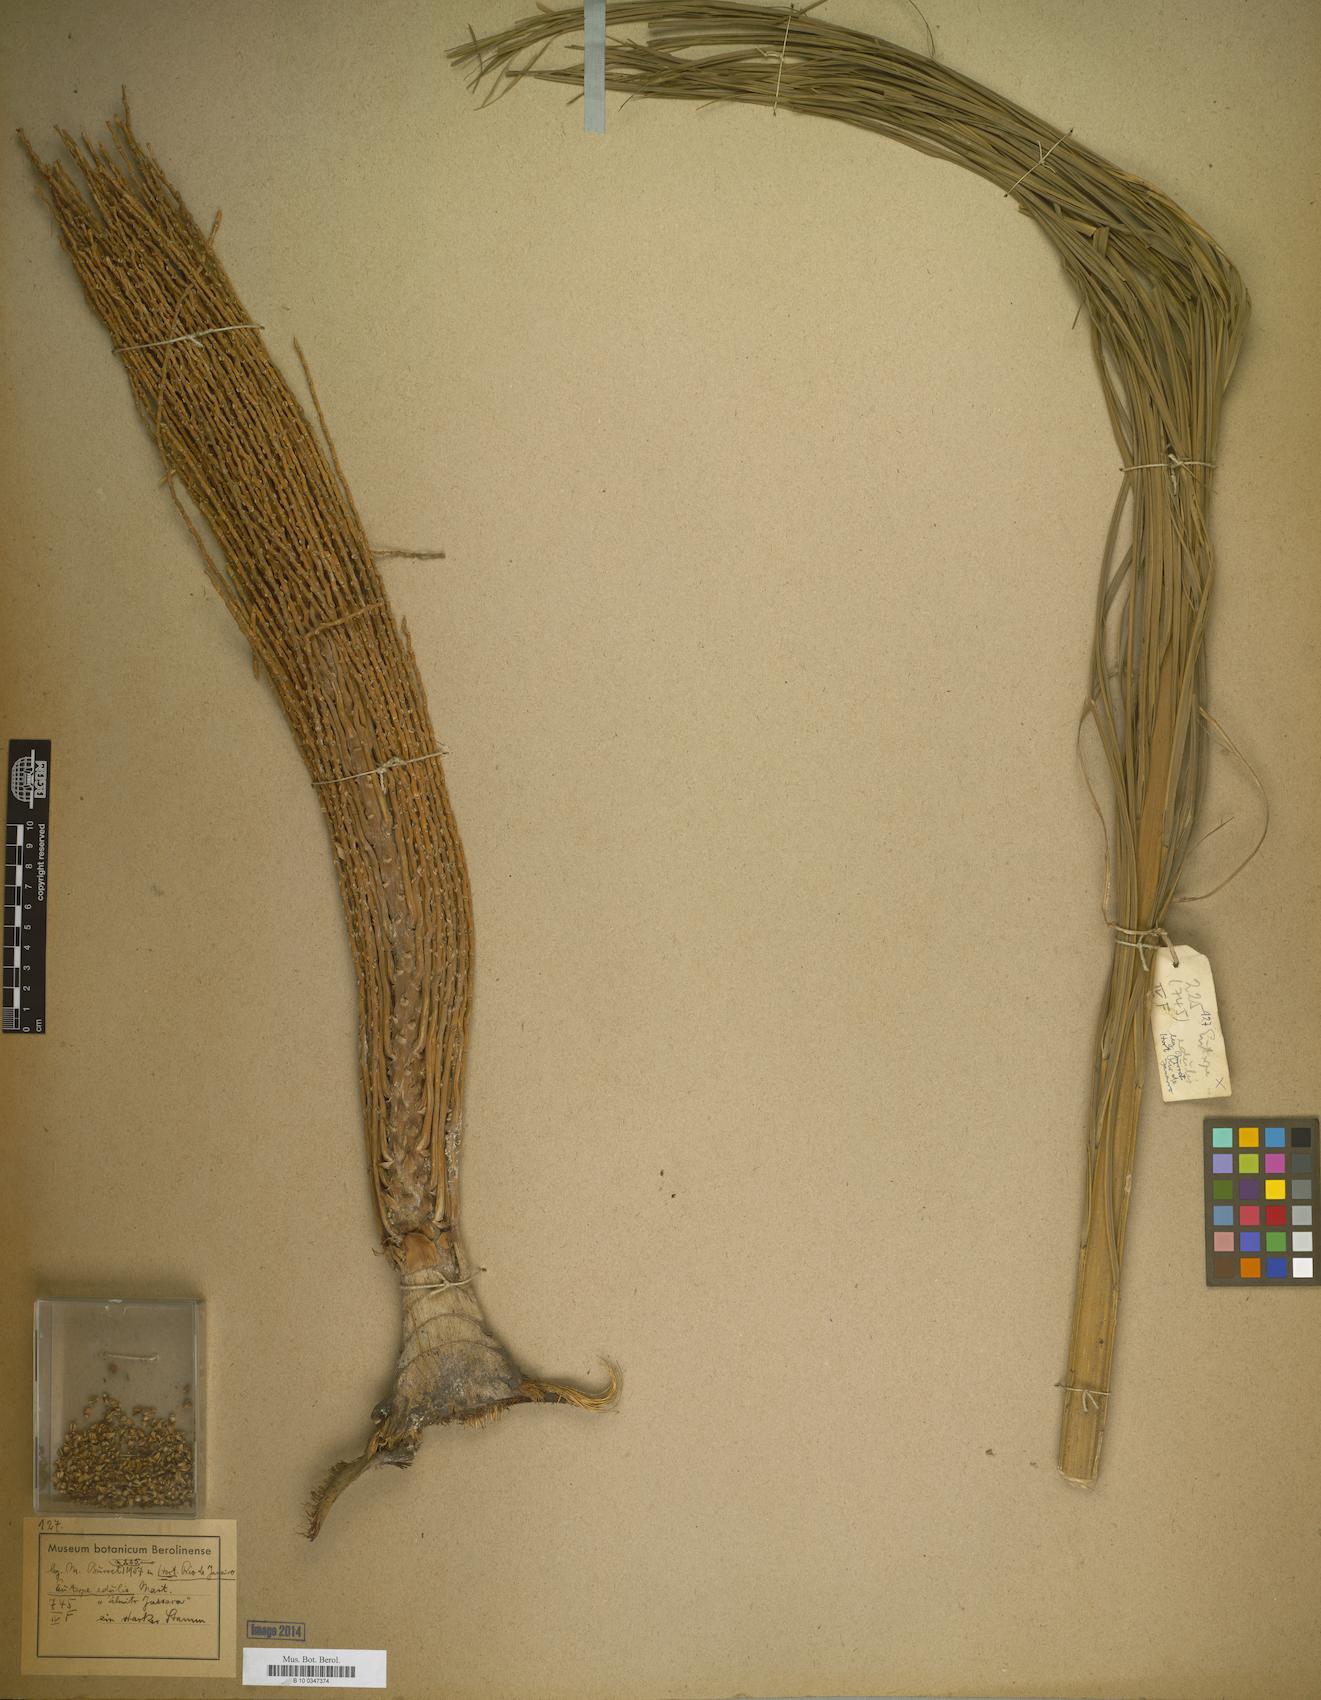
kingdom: Plantae
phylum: Tracheophyta
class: Liliopsida
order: Arecales
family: Arecaceae
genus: Euterpe
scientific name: Euterpe
